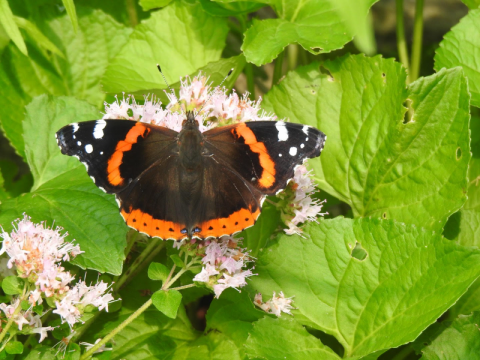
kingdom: Animalia
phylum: Arthropoda
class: Insecta
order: Lepidoptera
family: Nymphalidae
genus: Vanessa
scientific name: Vanessa atalanta
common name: Red Admiral
